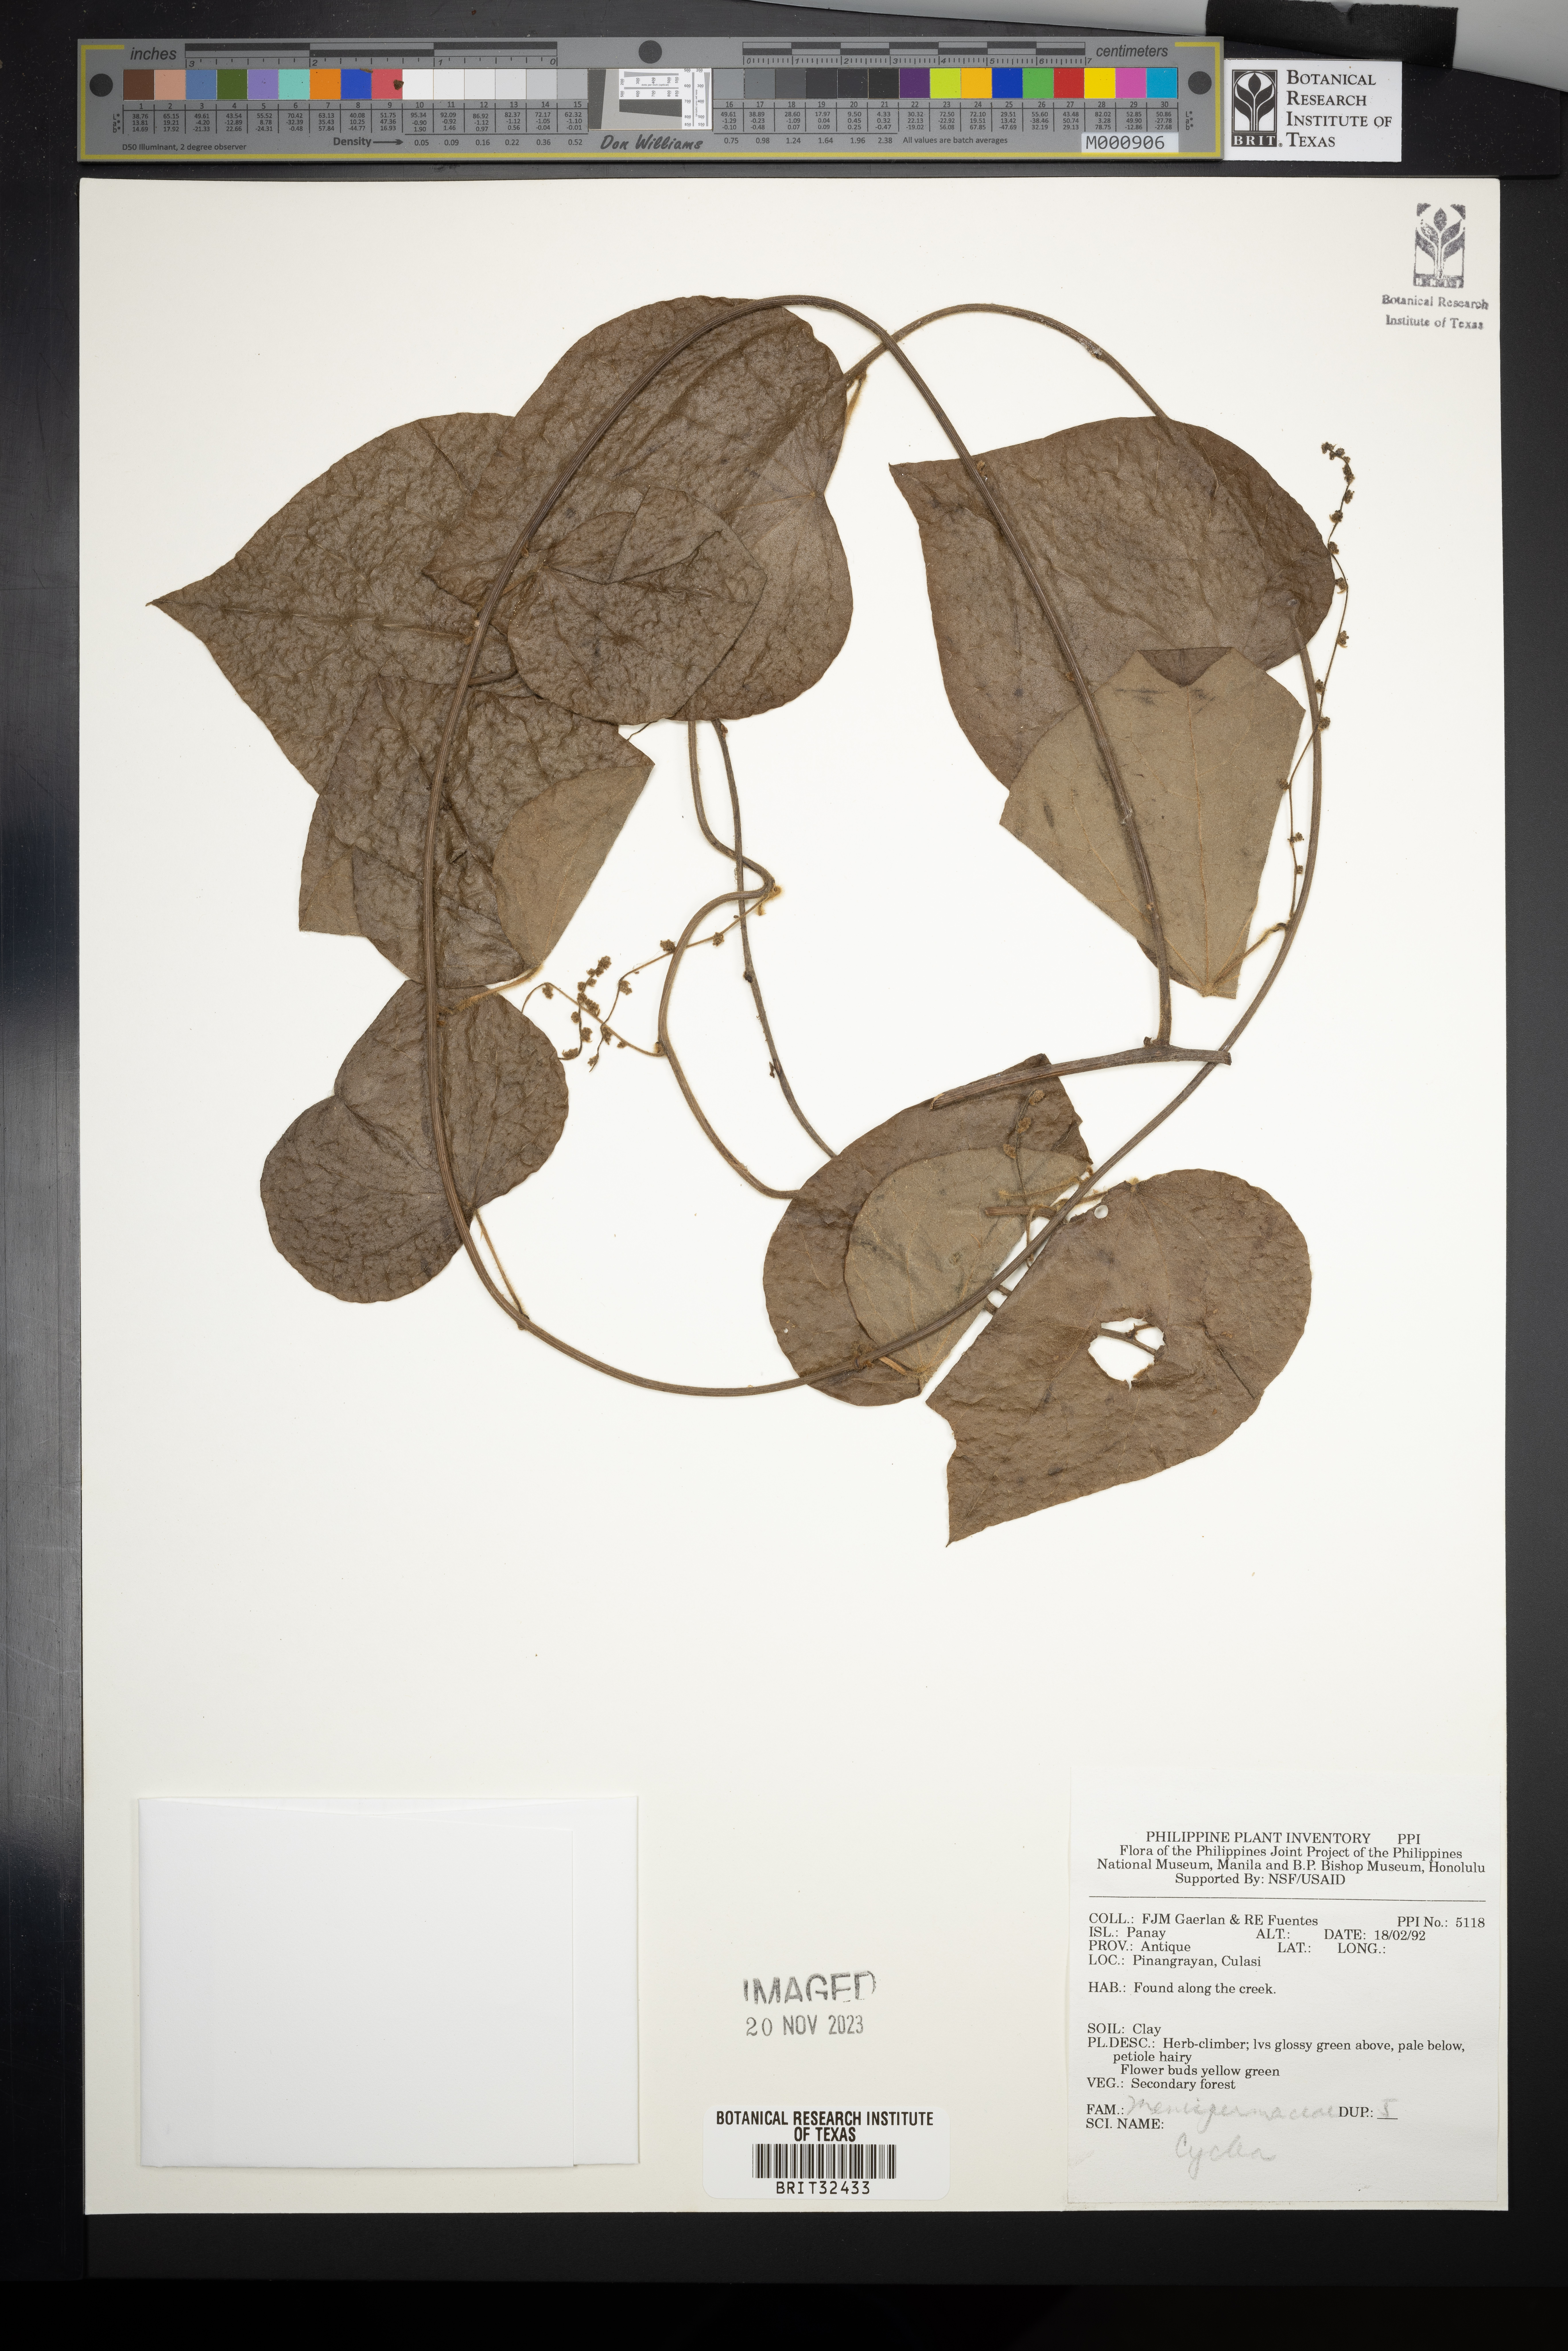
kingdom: Plantae
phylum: Tracheophyta
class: Magnoliopsida
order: Ranunculales
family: Menispermaceae
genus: Cyclea
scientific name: Cyclea
